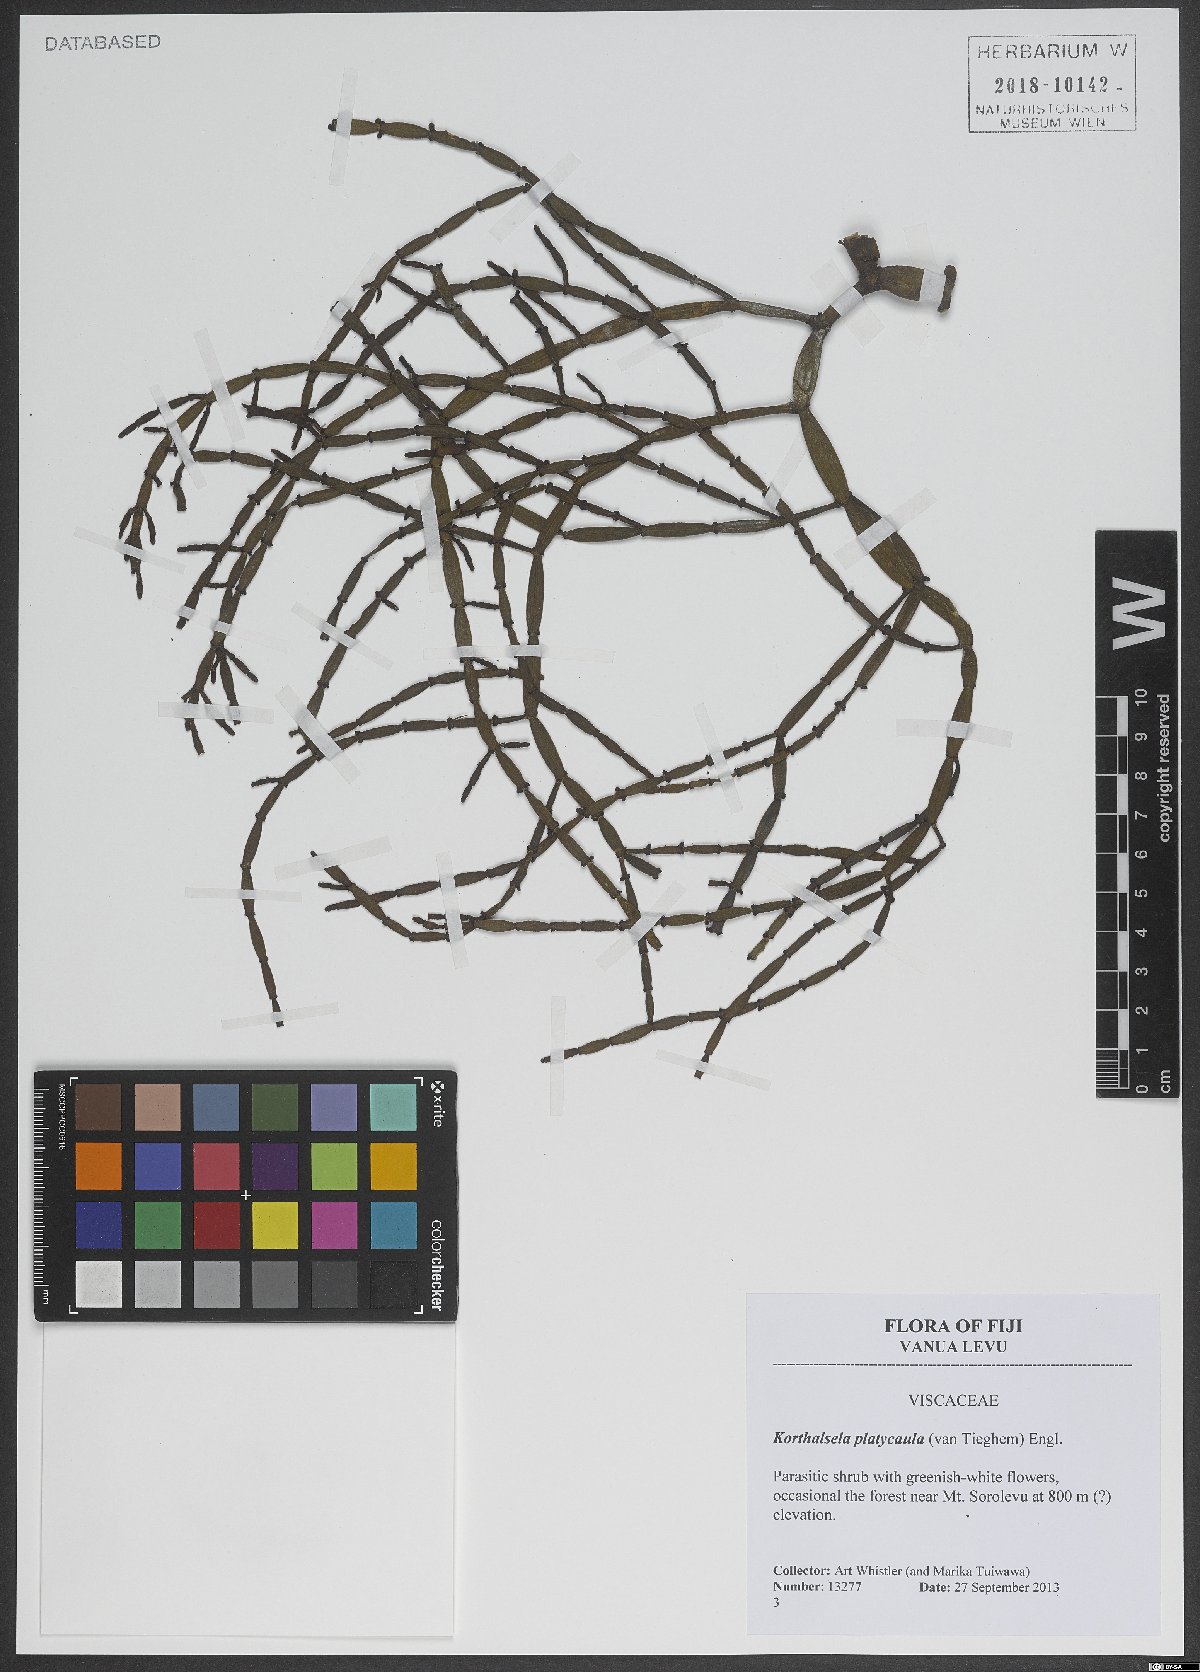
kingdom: Plantae
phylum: Tracheophyta
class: Magnoliopsida
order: Santalales
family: Viscaceae
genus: Korthalsella
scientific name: Korthalsella taenioides
